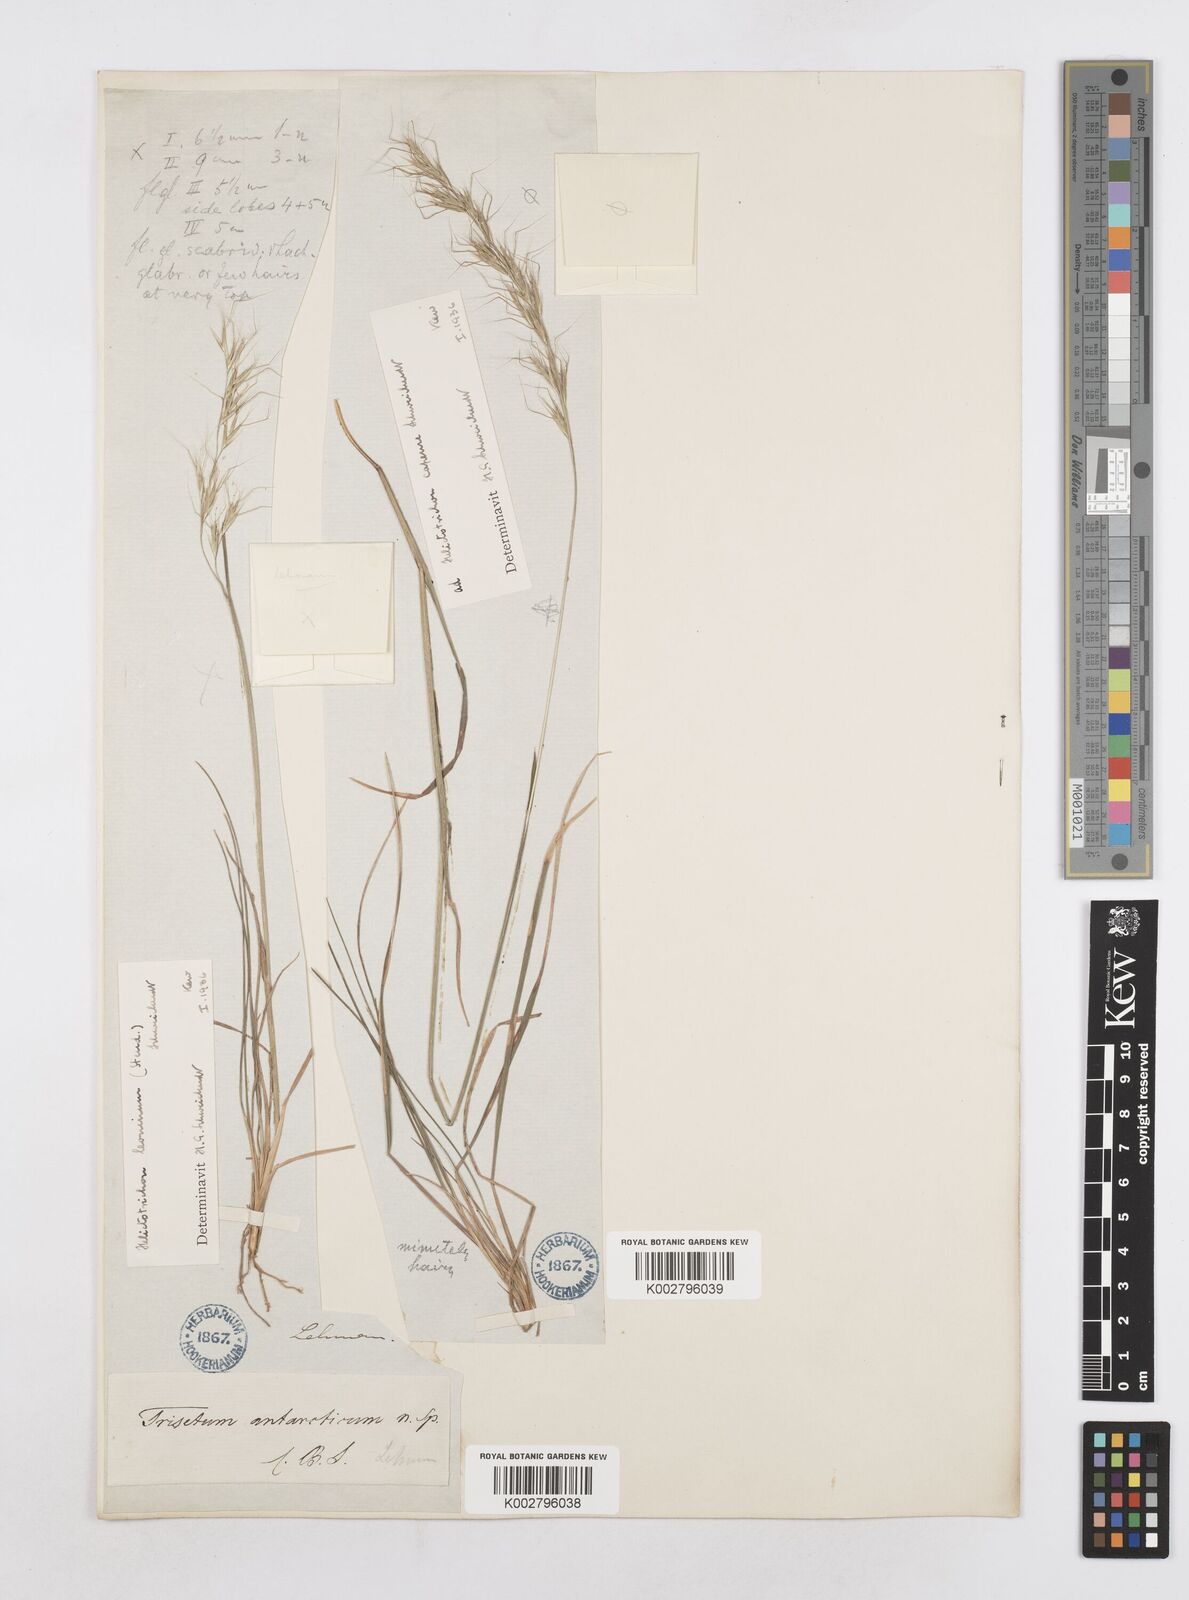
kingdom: Plantae
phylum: Tracheophyta
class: Liliopsida
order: Poales
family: Poaceae
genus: Trisetopsis
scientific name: Trisetopsis leonina
